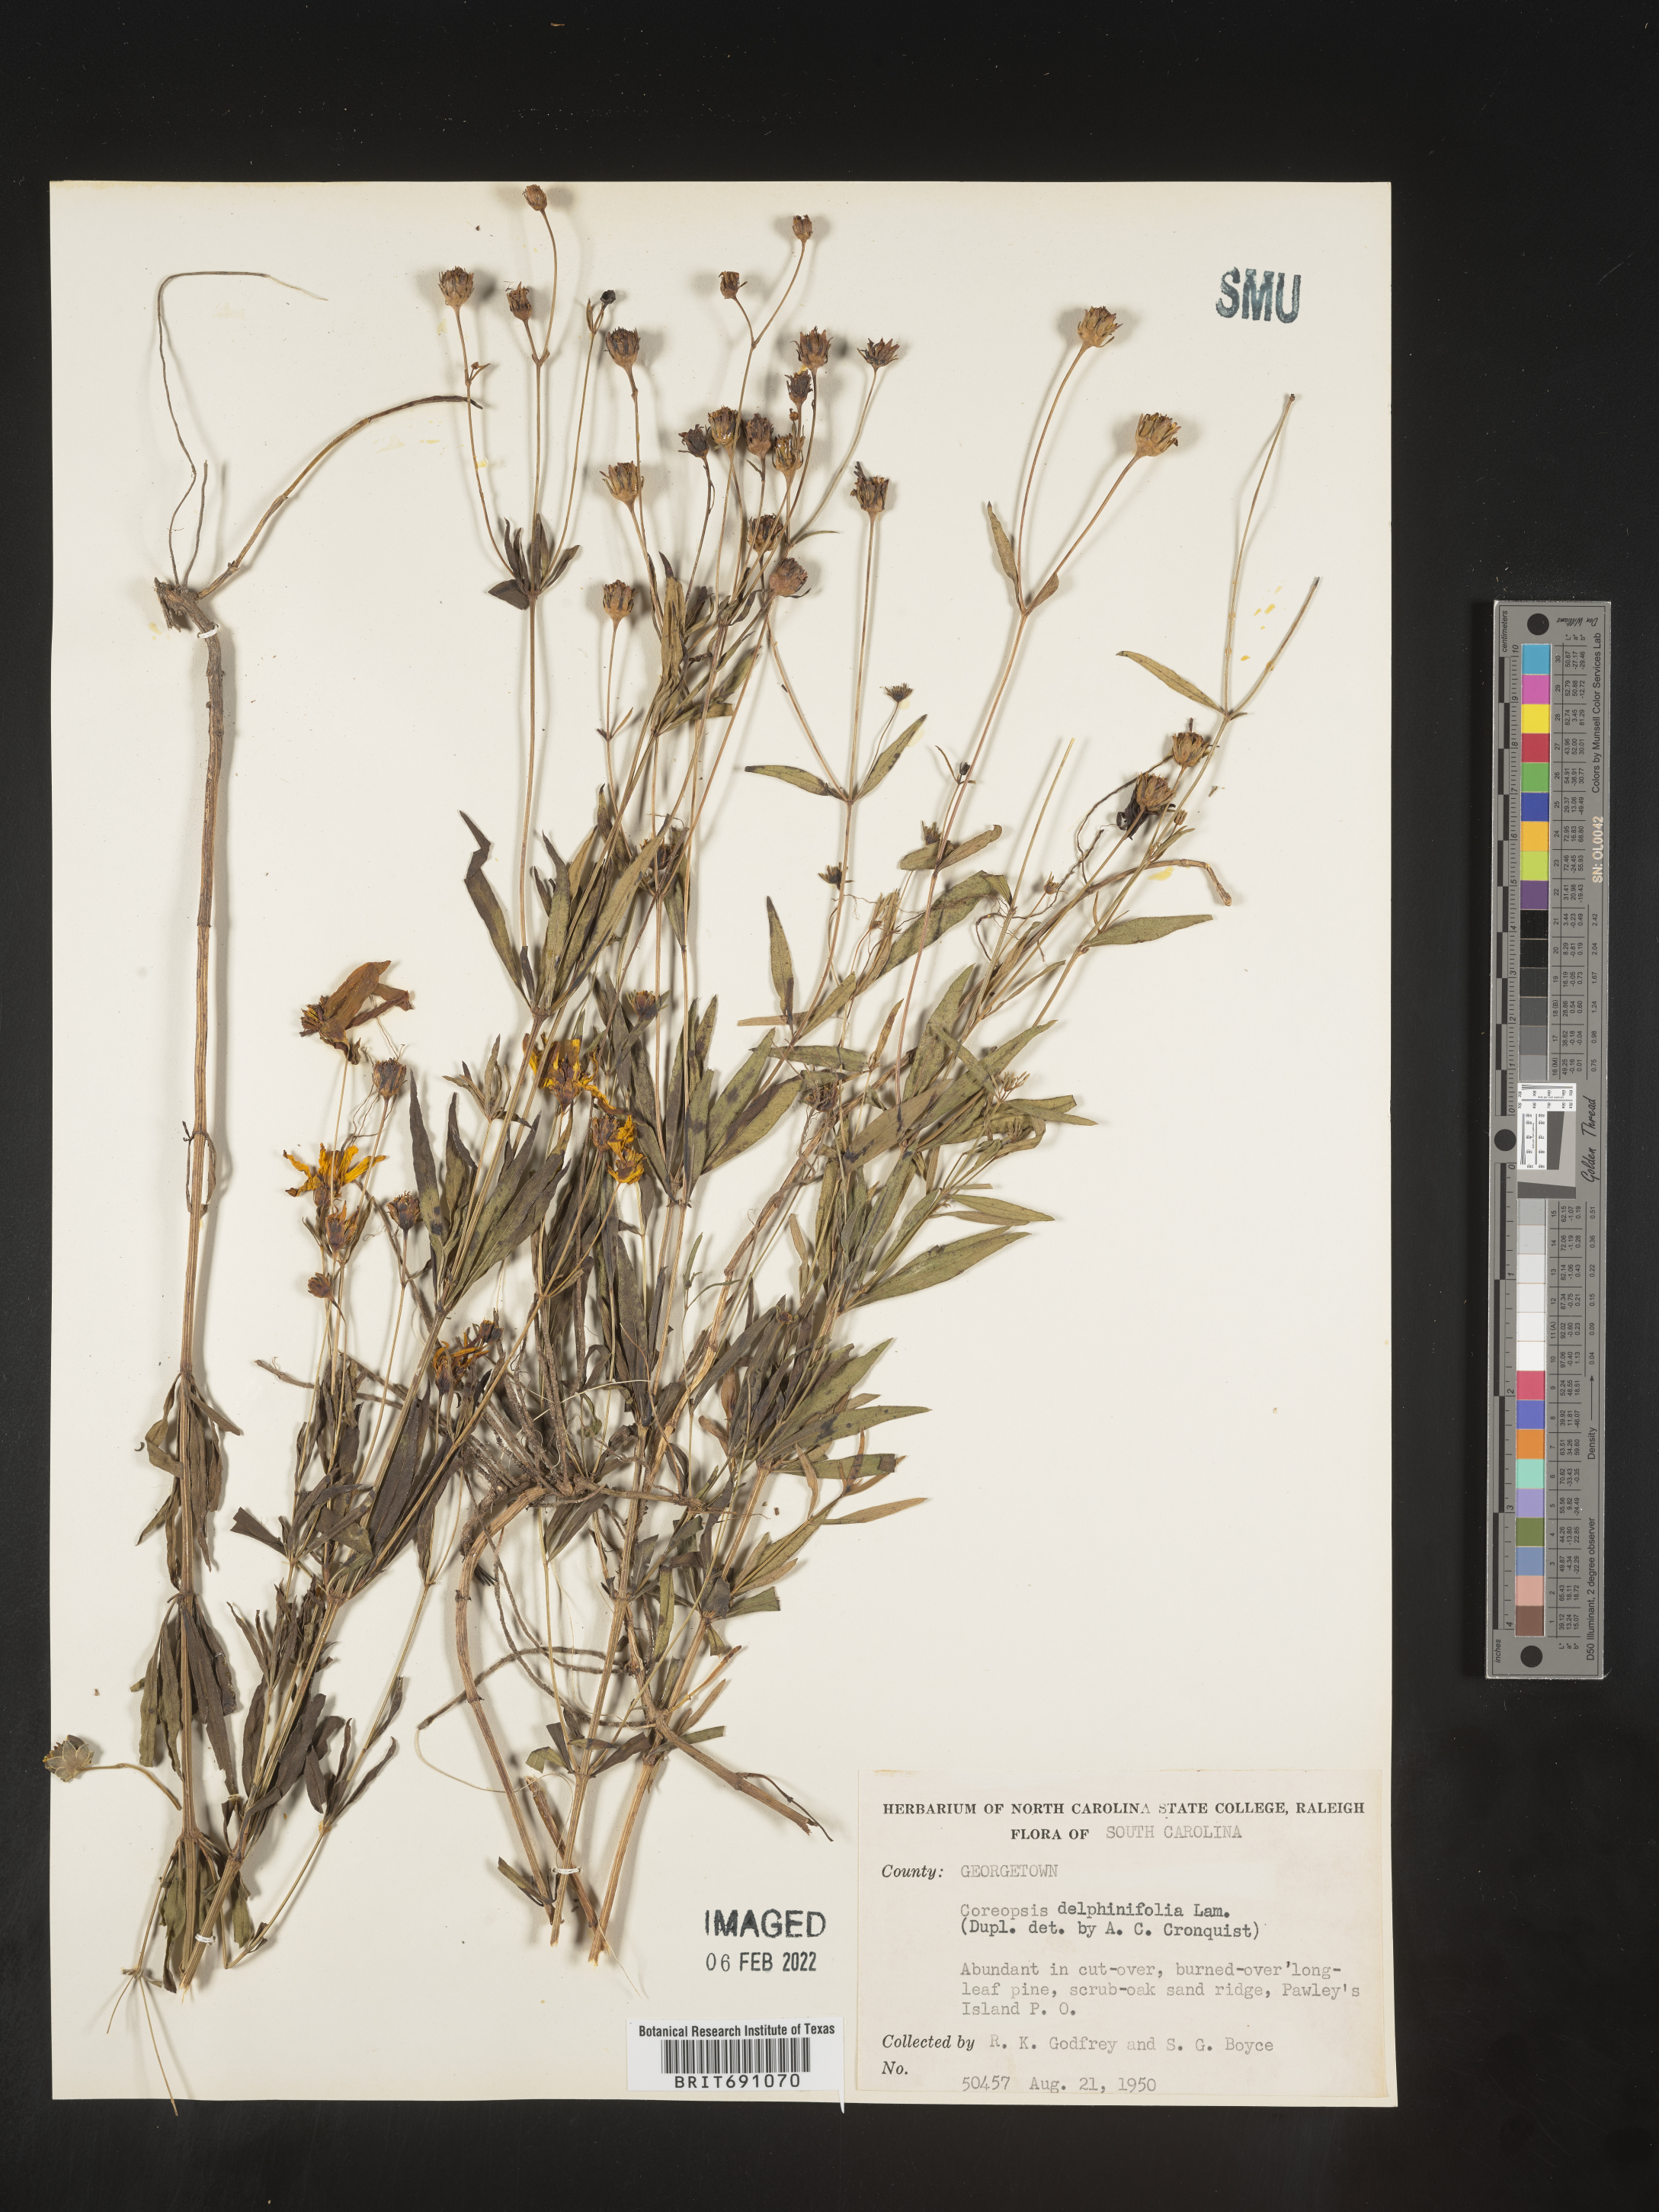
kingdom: Plantae
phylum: Tracheophyta
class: Magnoliopsida
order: Asterales
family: Asteraceae
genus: Coreopsis
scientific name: Coreopsis
